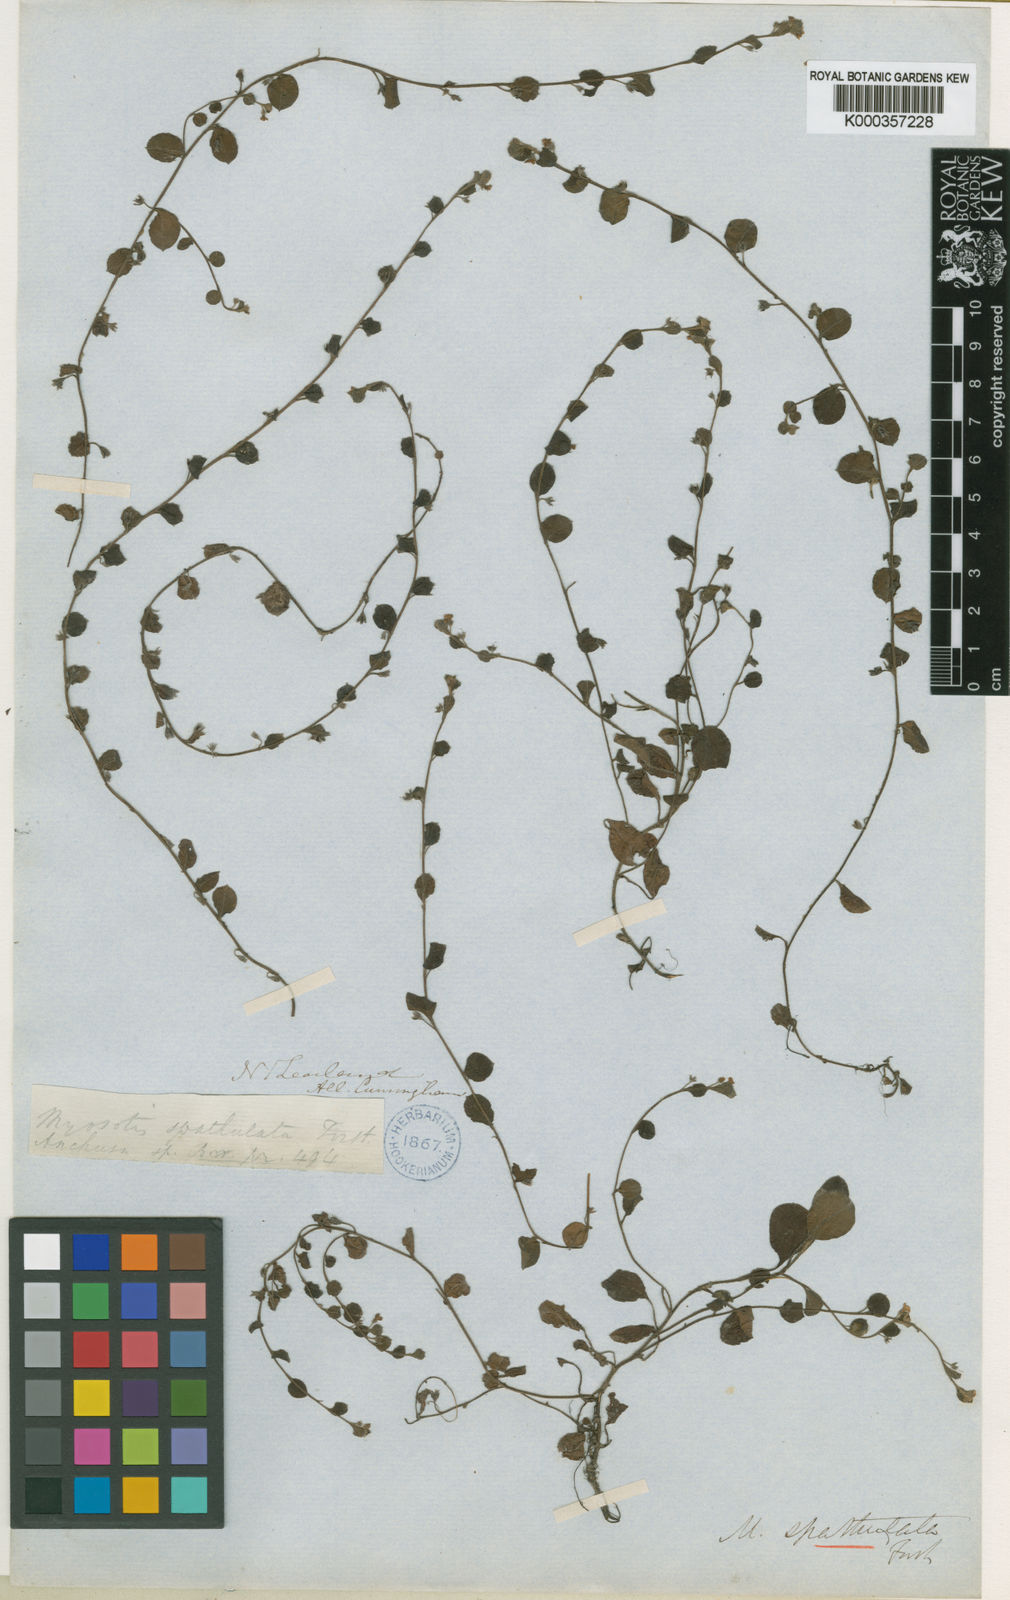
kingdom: Plantae
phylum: Tracheophyta
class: Magnoliopsida
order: Boraginales
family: Boraginaceae
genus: Myosotis
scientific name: Myosotis
